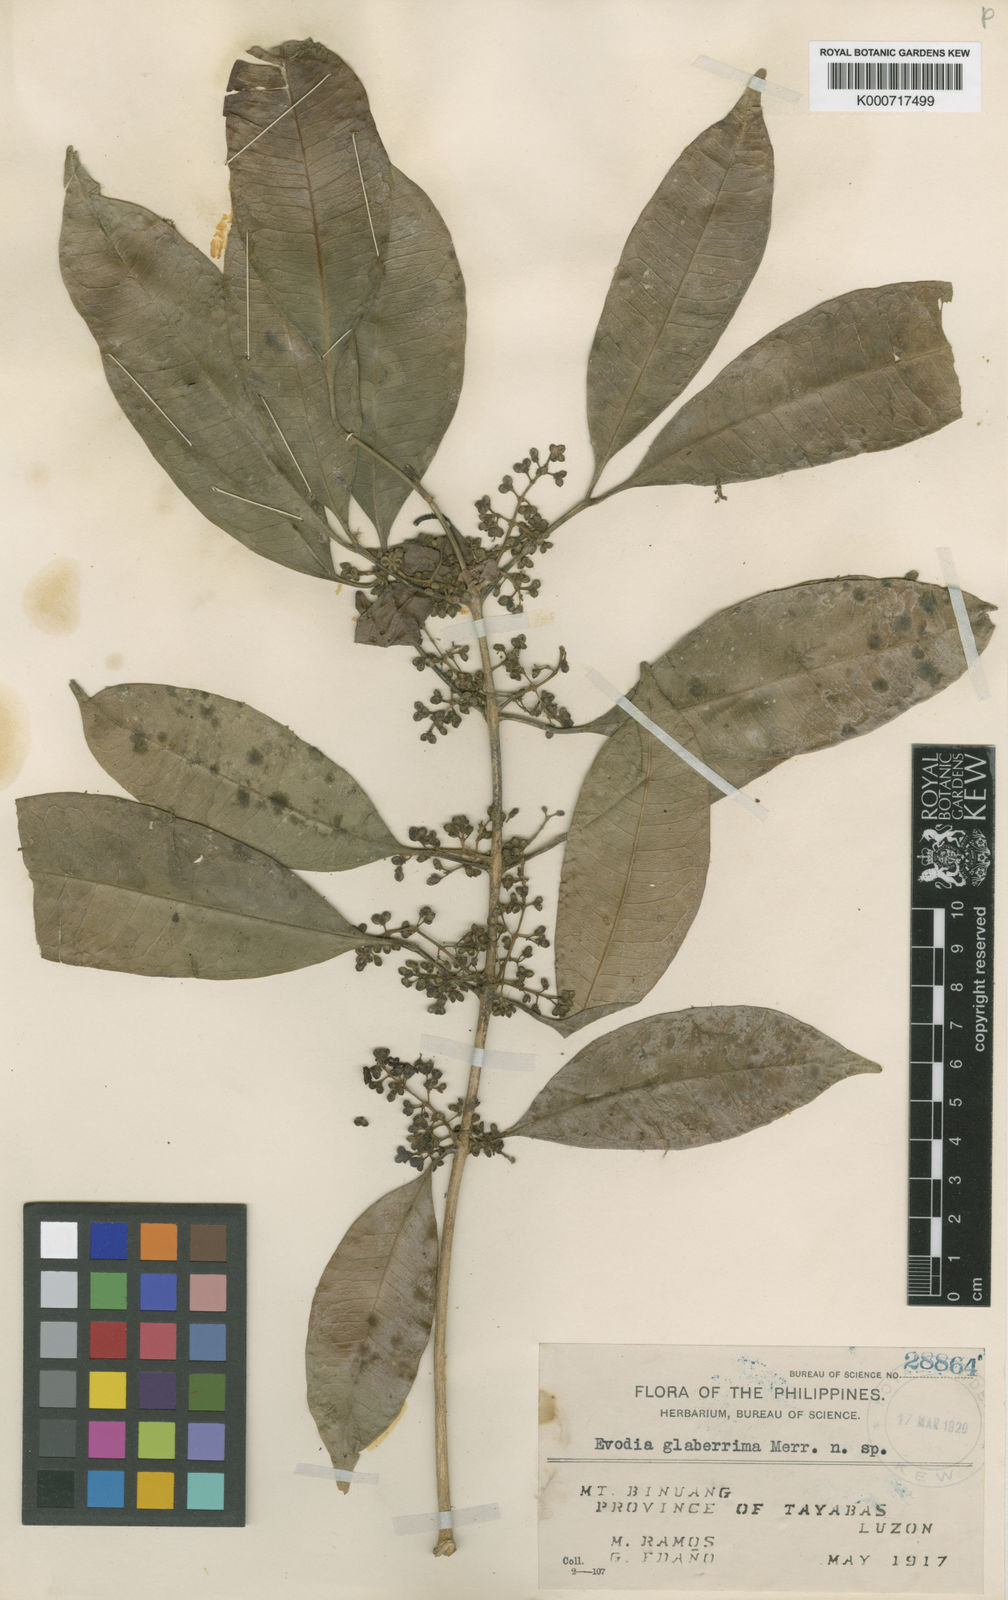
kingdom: Plantae
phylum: Tracheophyta
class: Magnoliopsida
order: Sapindales
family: Rutaceae
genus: Melicope
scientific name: Melicope triphylla
